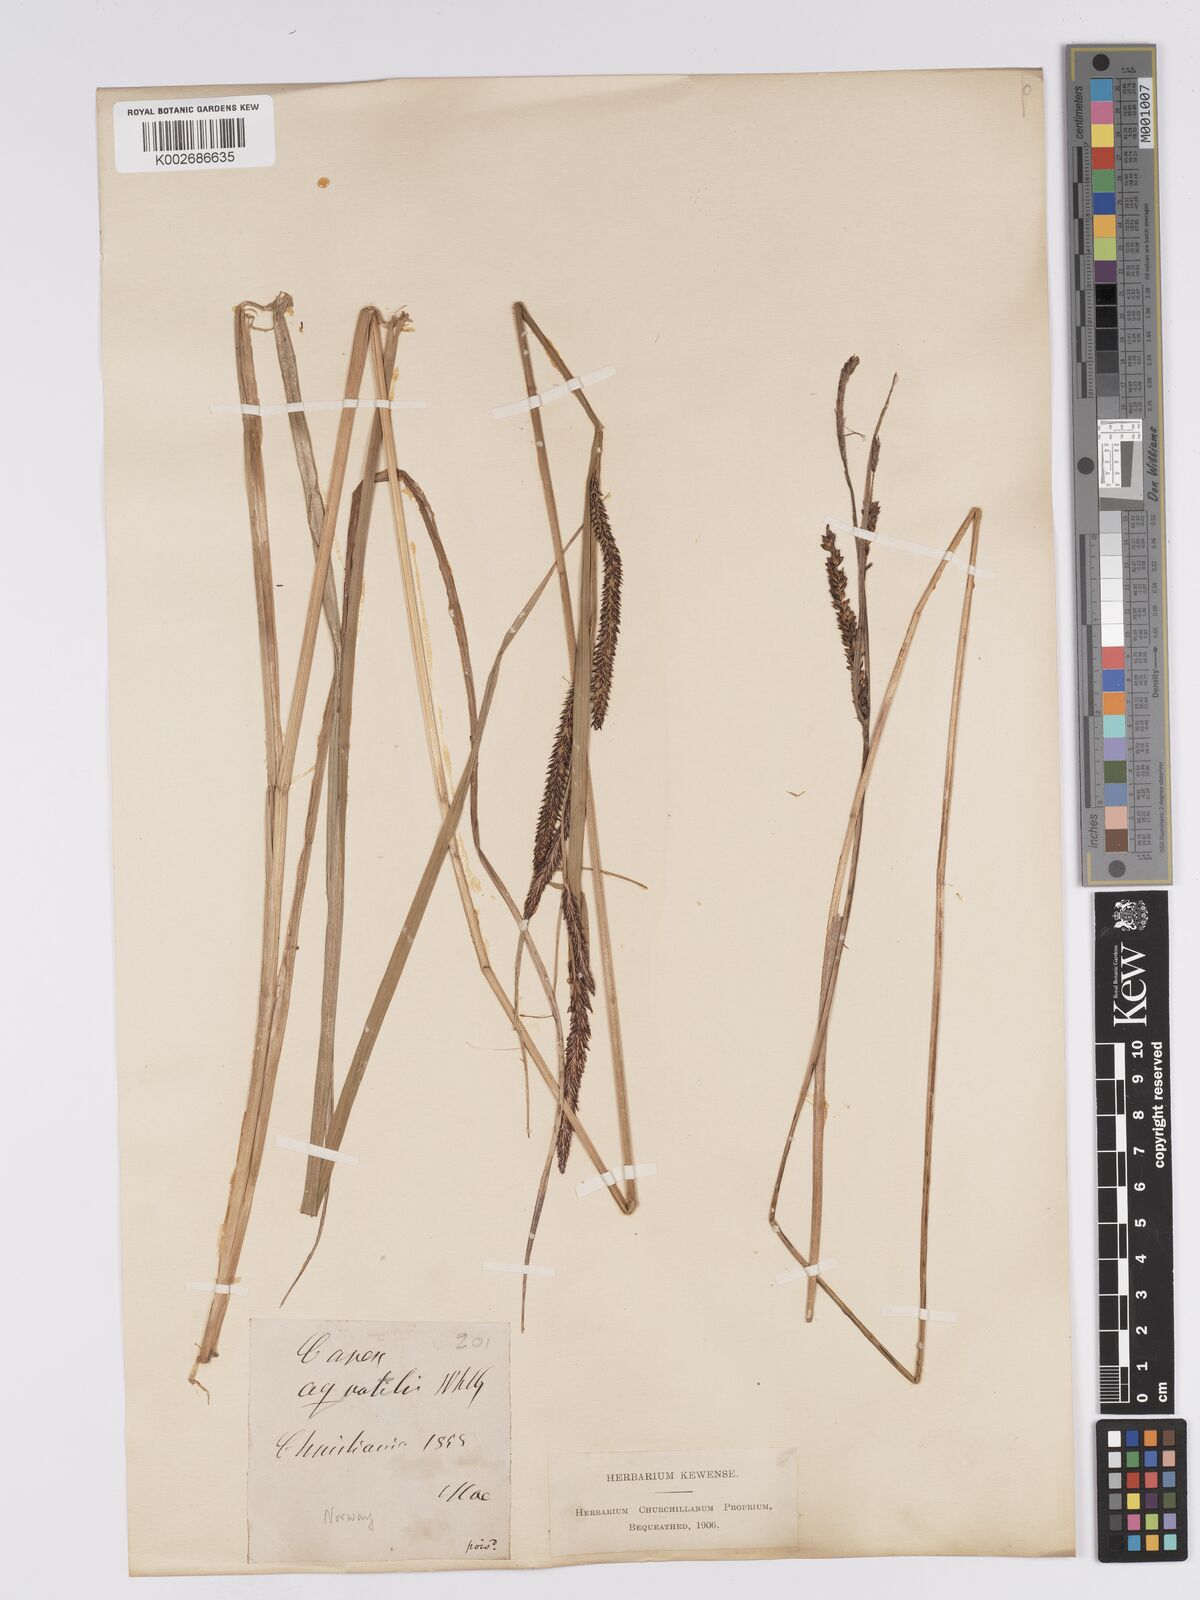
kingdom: Plantae
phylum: Tracheophyta
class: Liliopsida
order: Poales
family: Cyperaceae
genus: Carex
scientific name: Carex aquatilis
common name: Water sedge
